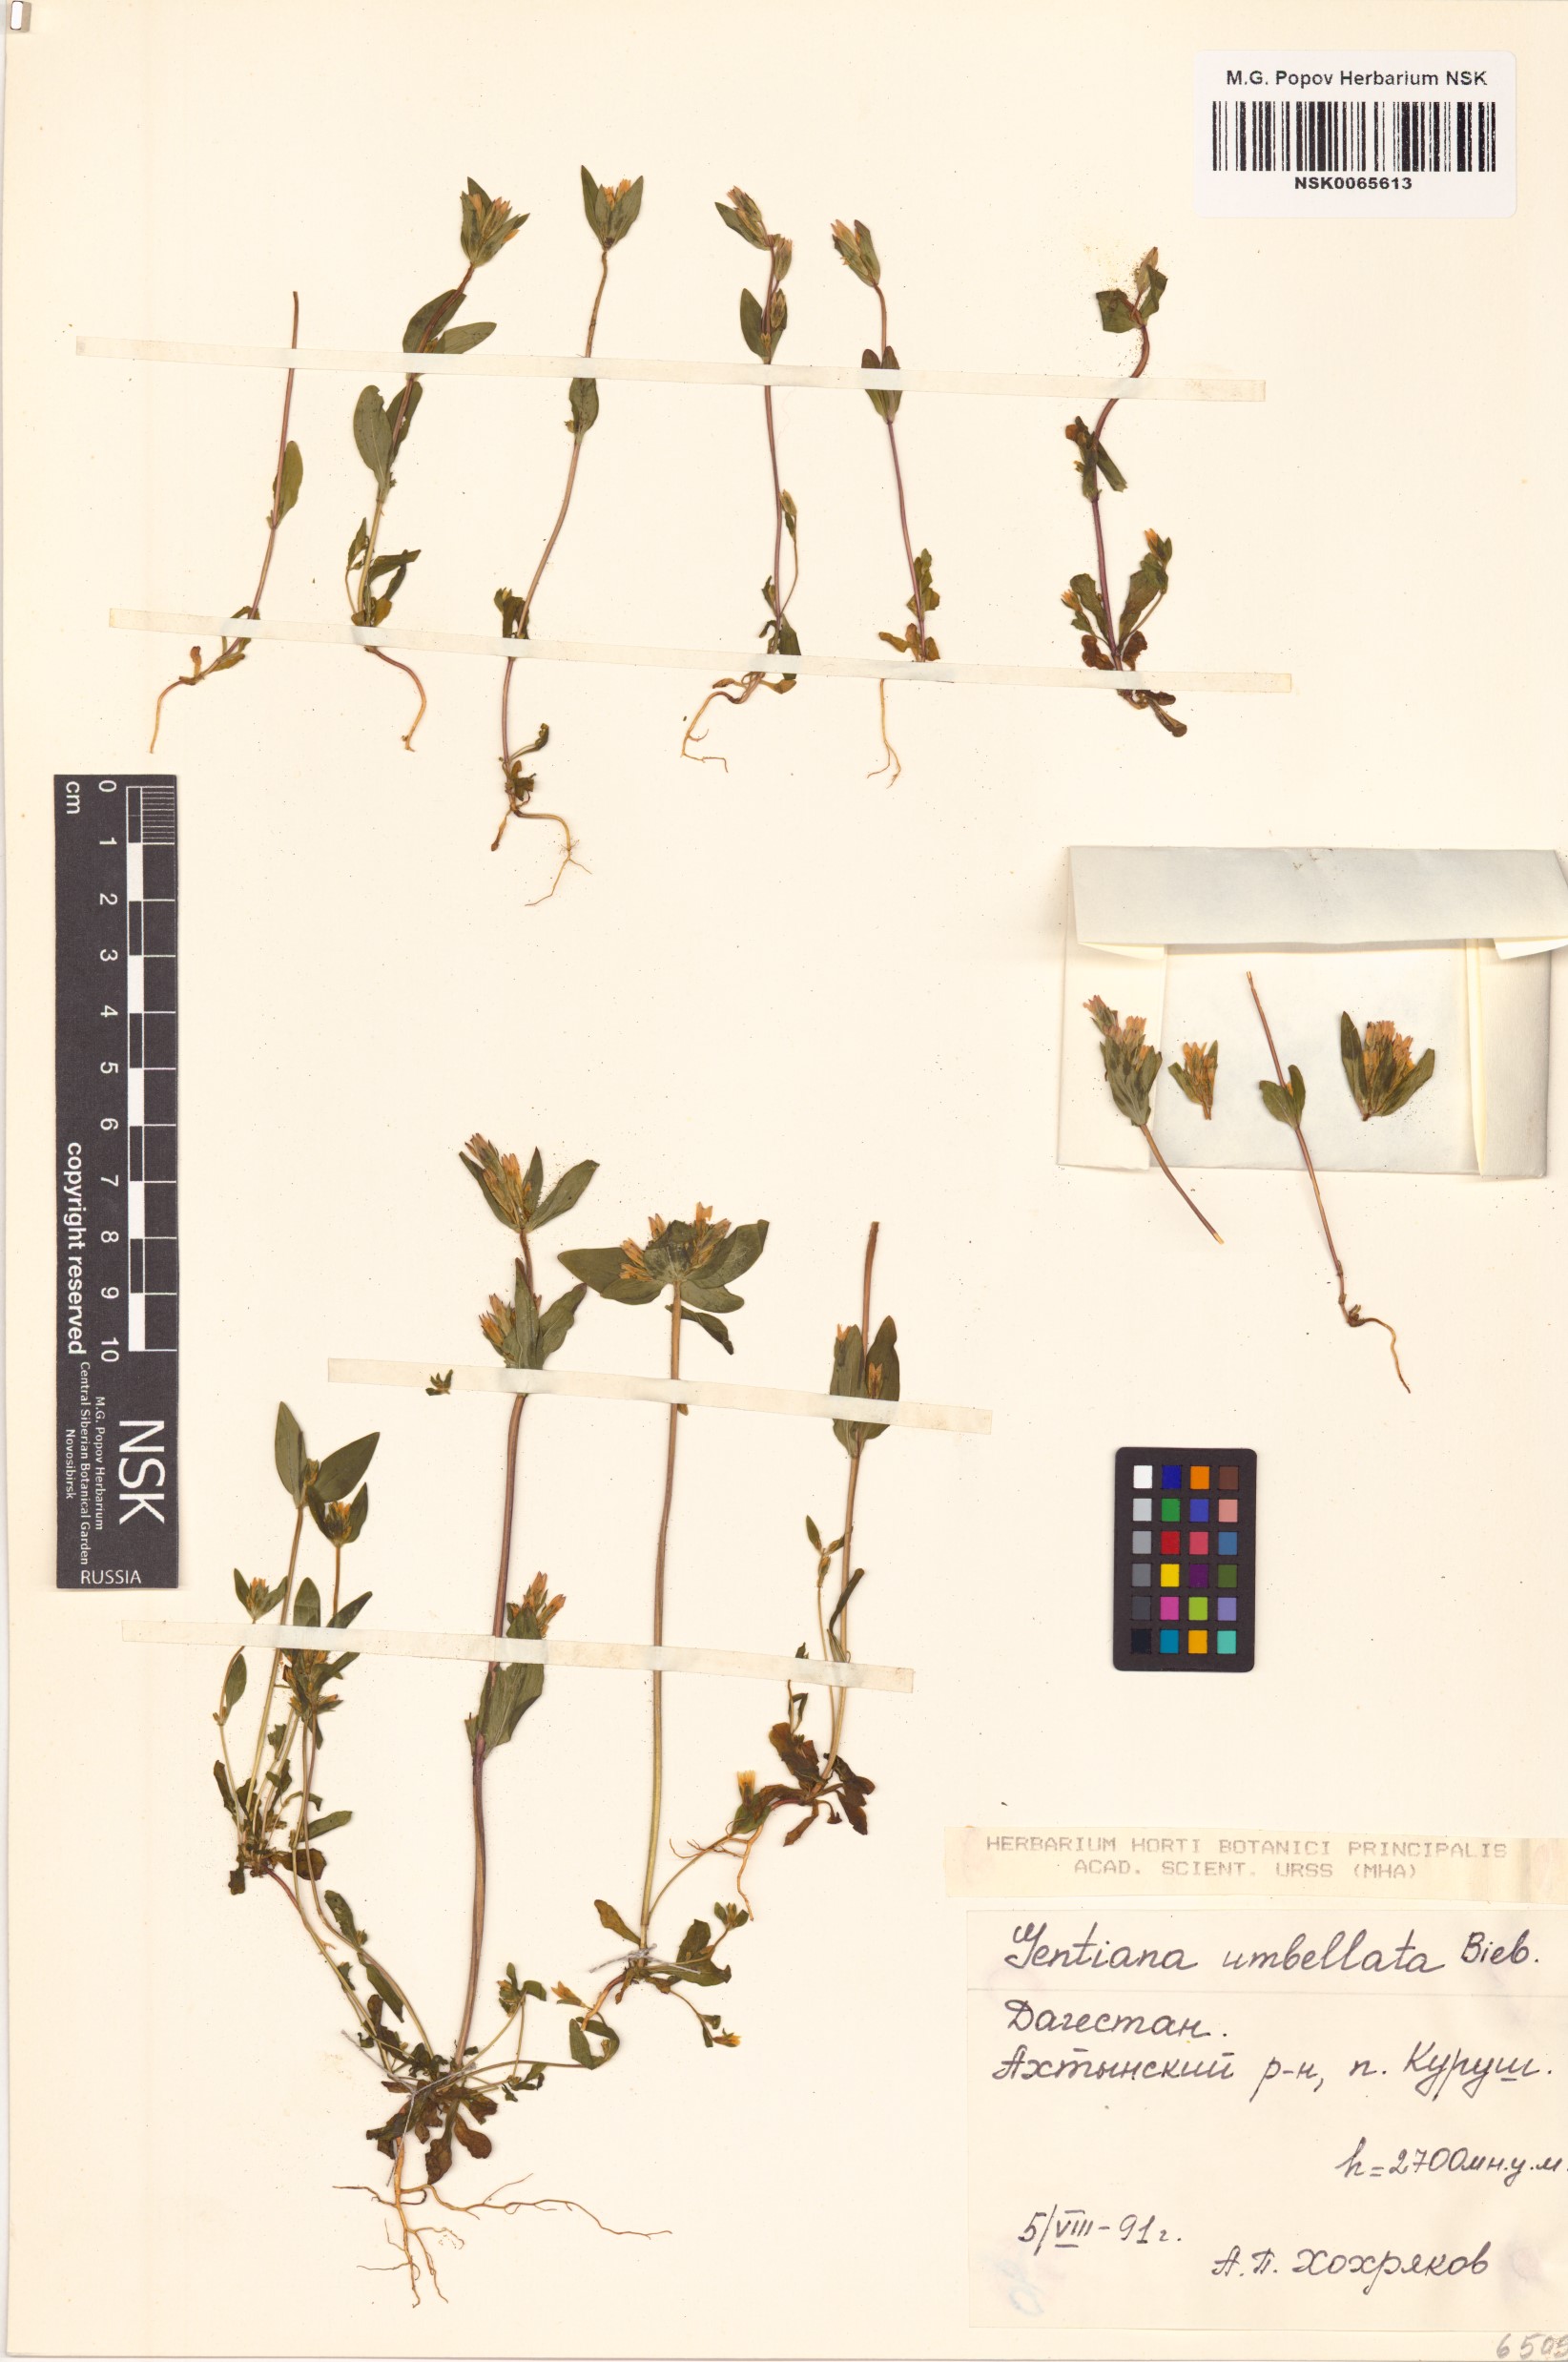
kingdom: Plantae
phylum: Tracheophyta
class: Magnoliopsida
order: Gentianales
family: Gentianaceae
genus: Gentianella
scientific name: Gentianella umbellata
